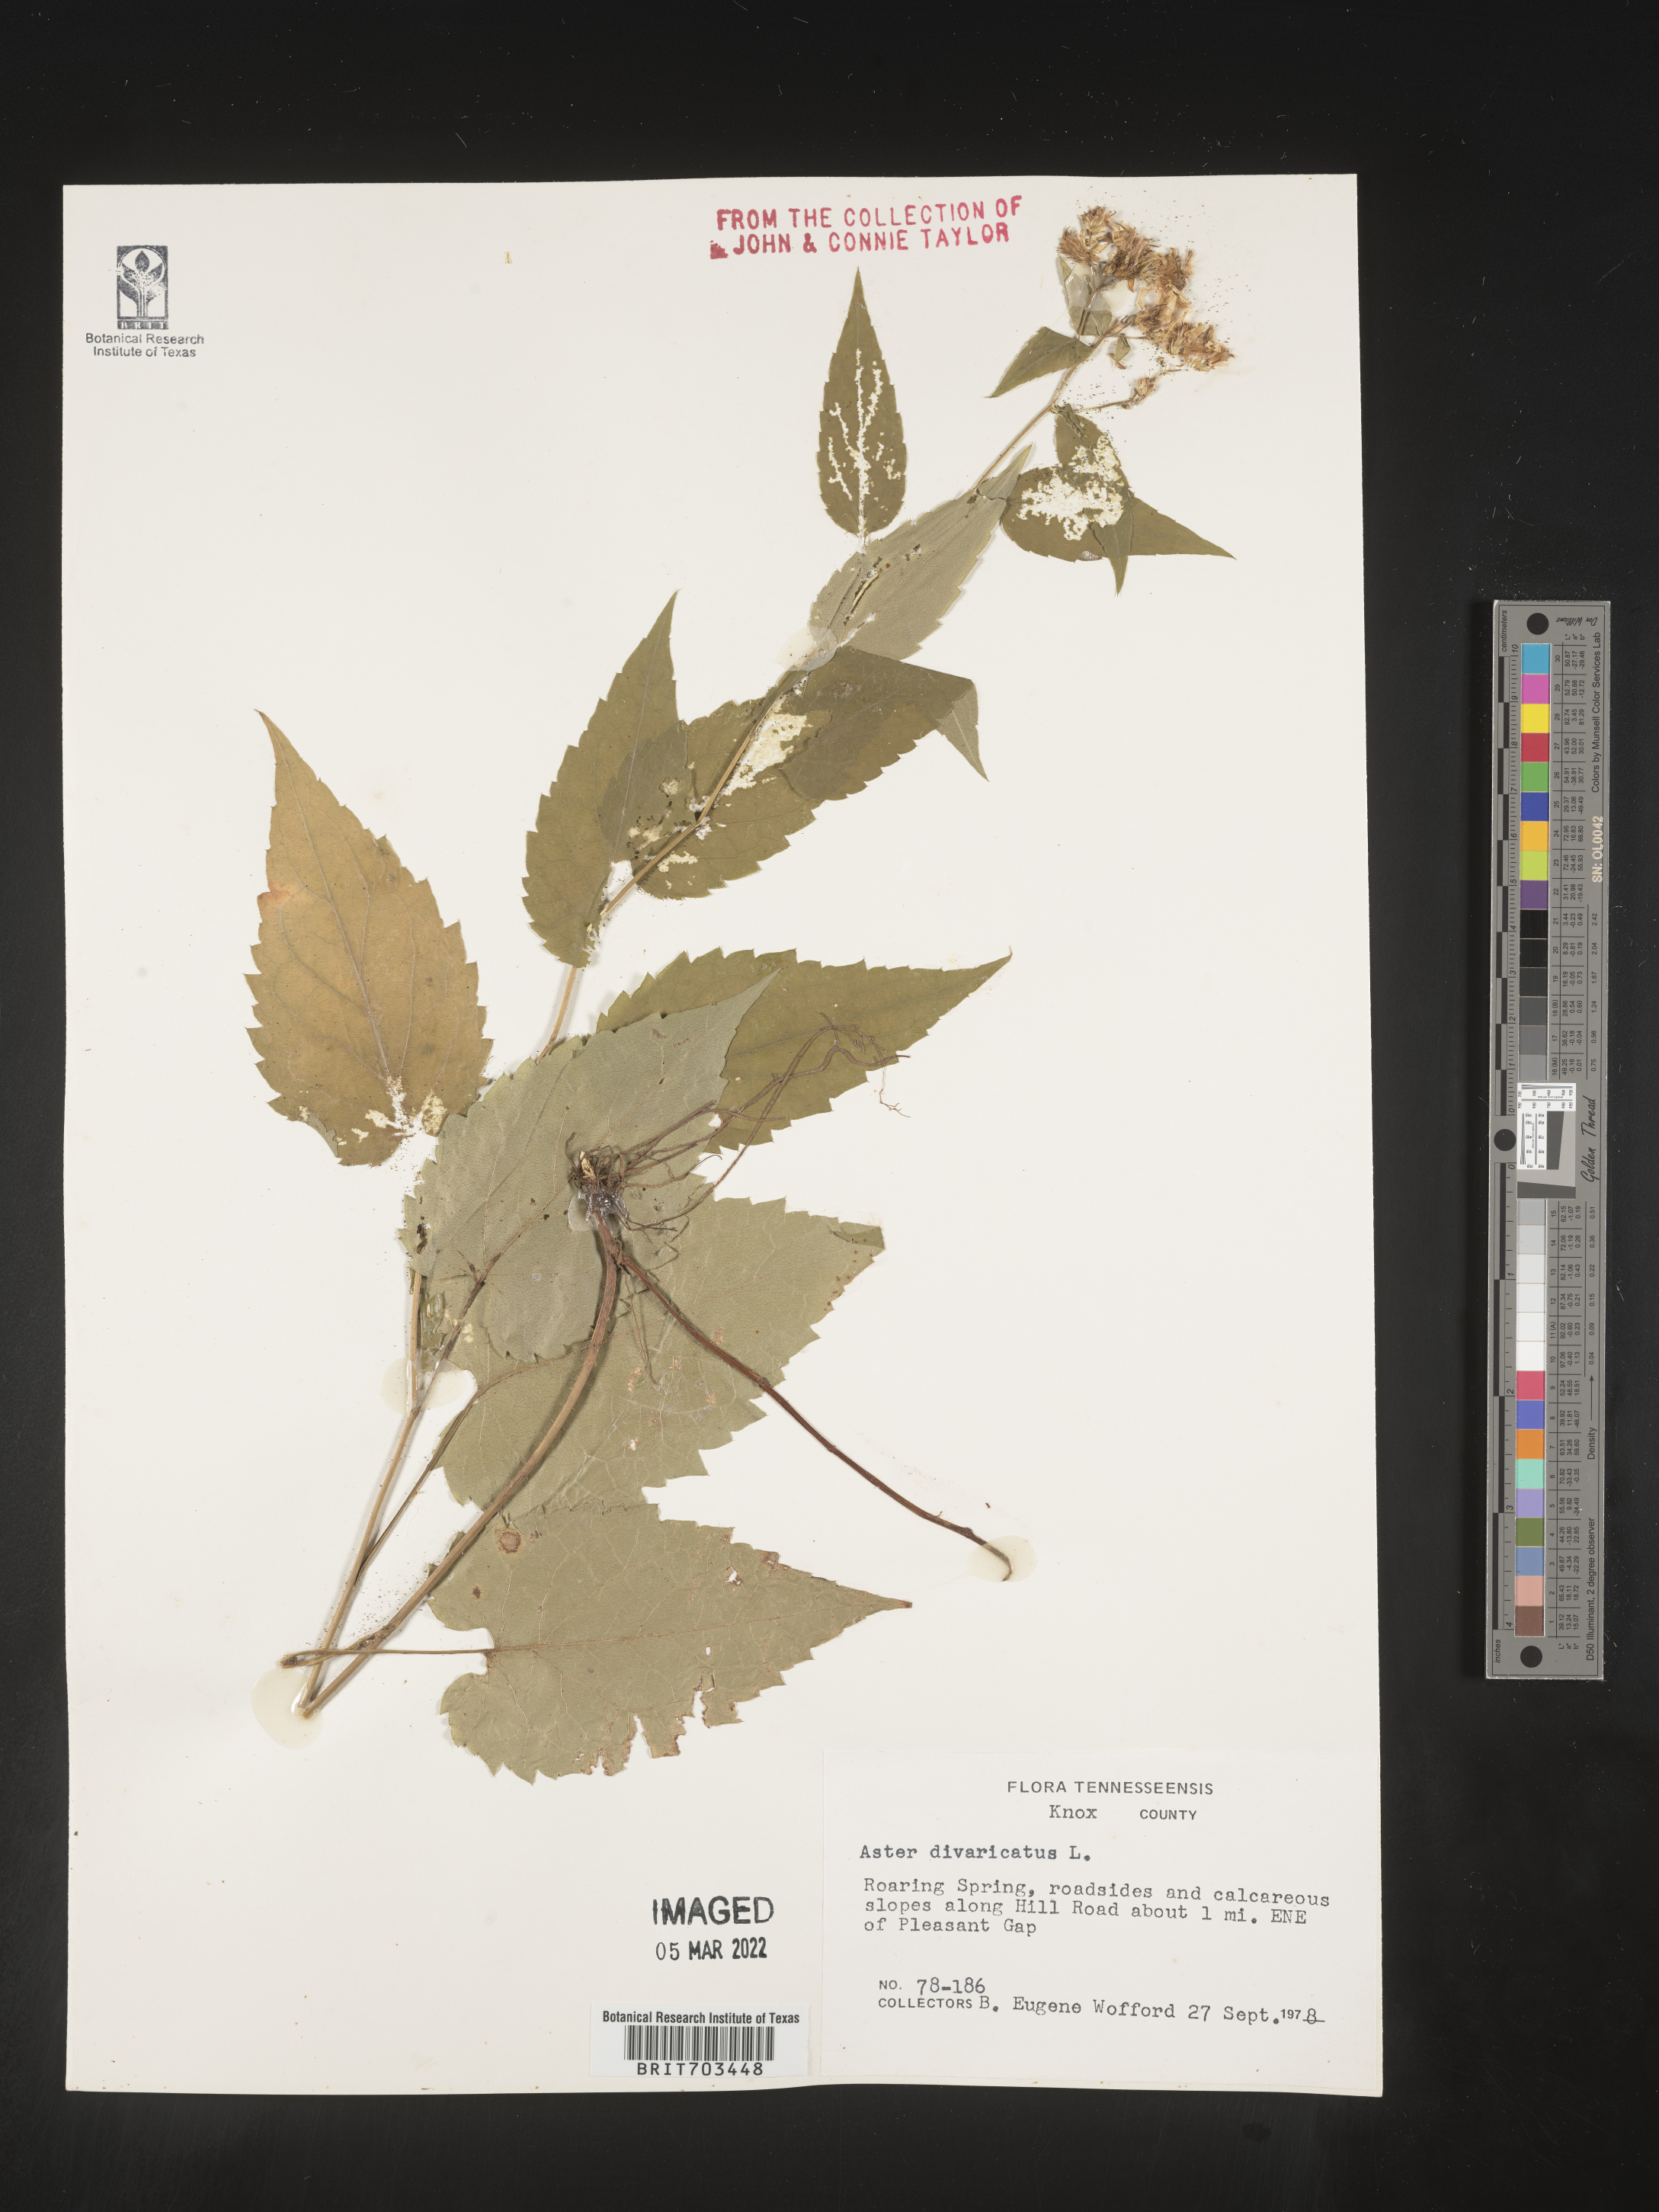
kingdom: Plantae
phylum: Tracheophyta
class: Magnoliopsida
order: Asterales
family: Asteraceae
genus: Eurybia
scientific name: Eurybia divaricata
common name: White wood aster
